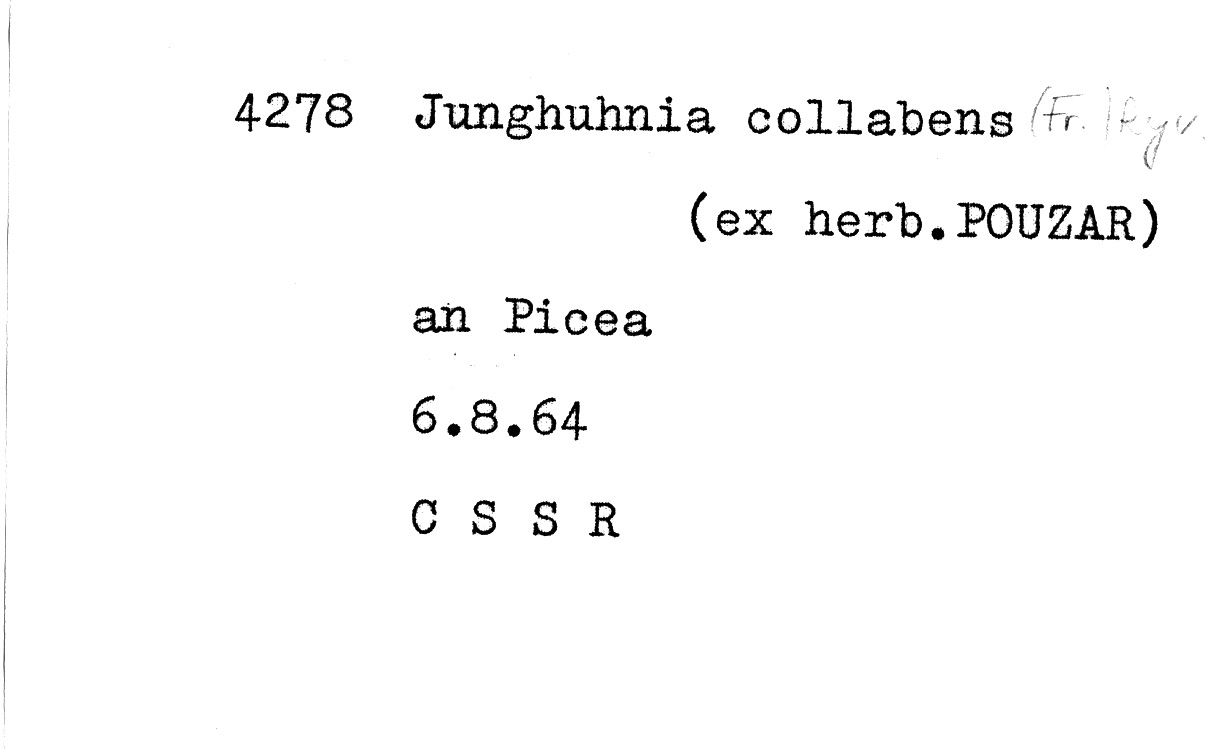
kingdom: Plantae
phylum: Tracheophyta
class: Pinopsida
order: Pinales
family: Pinaceae
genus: Picea
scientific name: Picea abies
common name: Norway spruce
